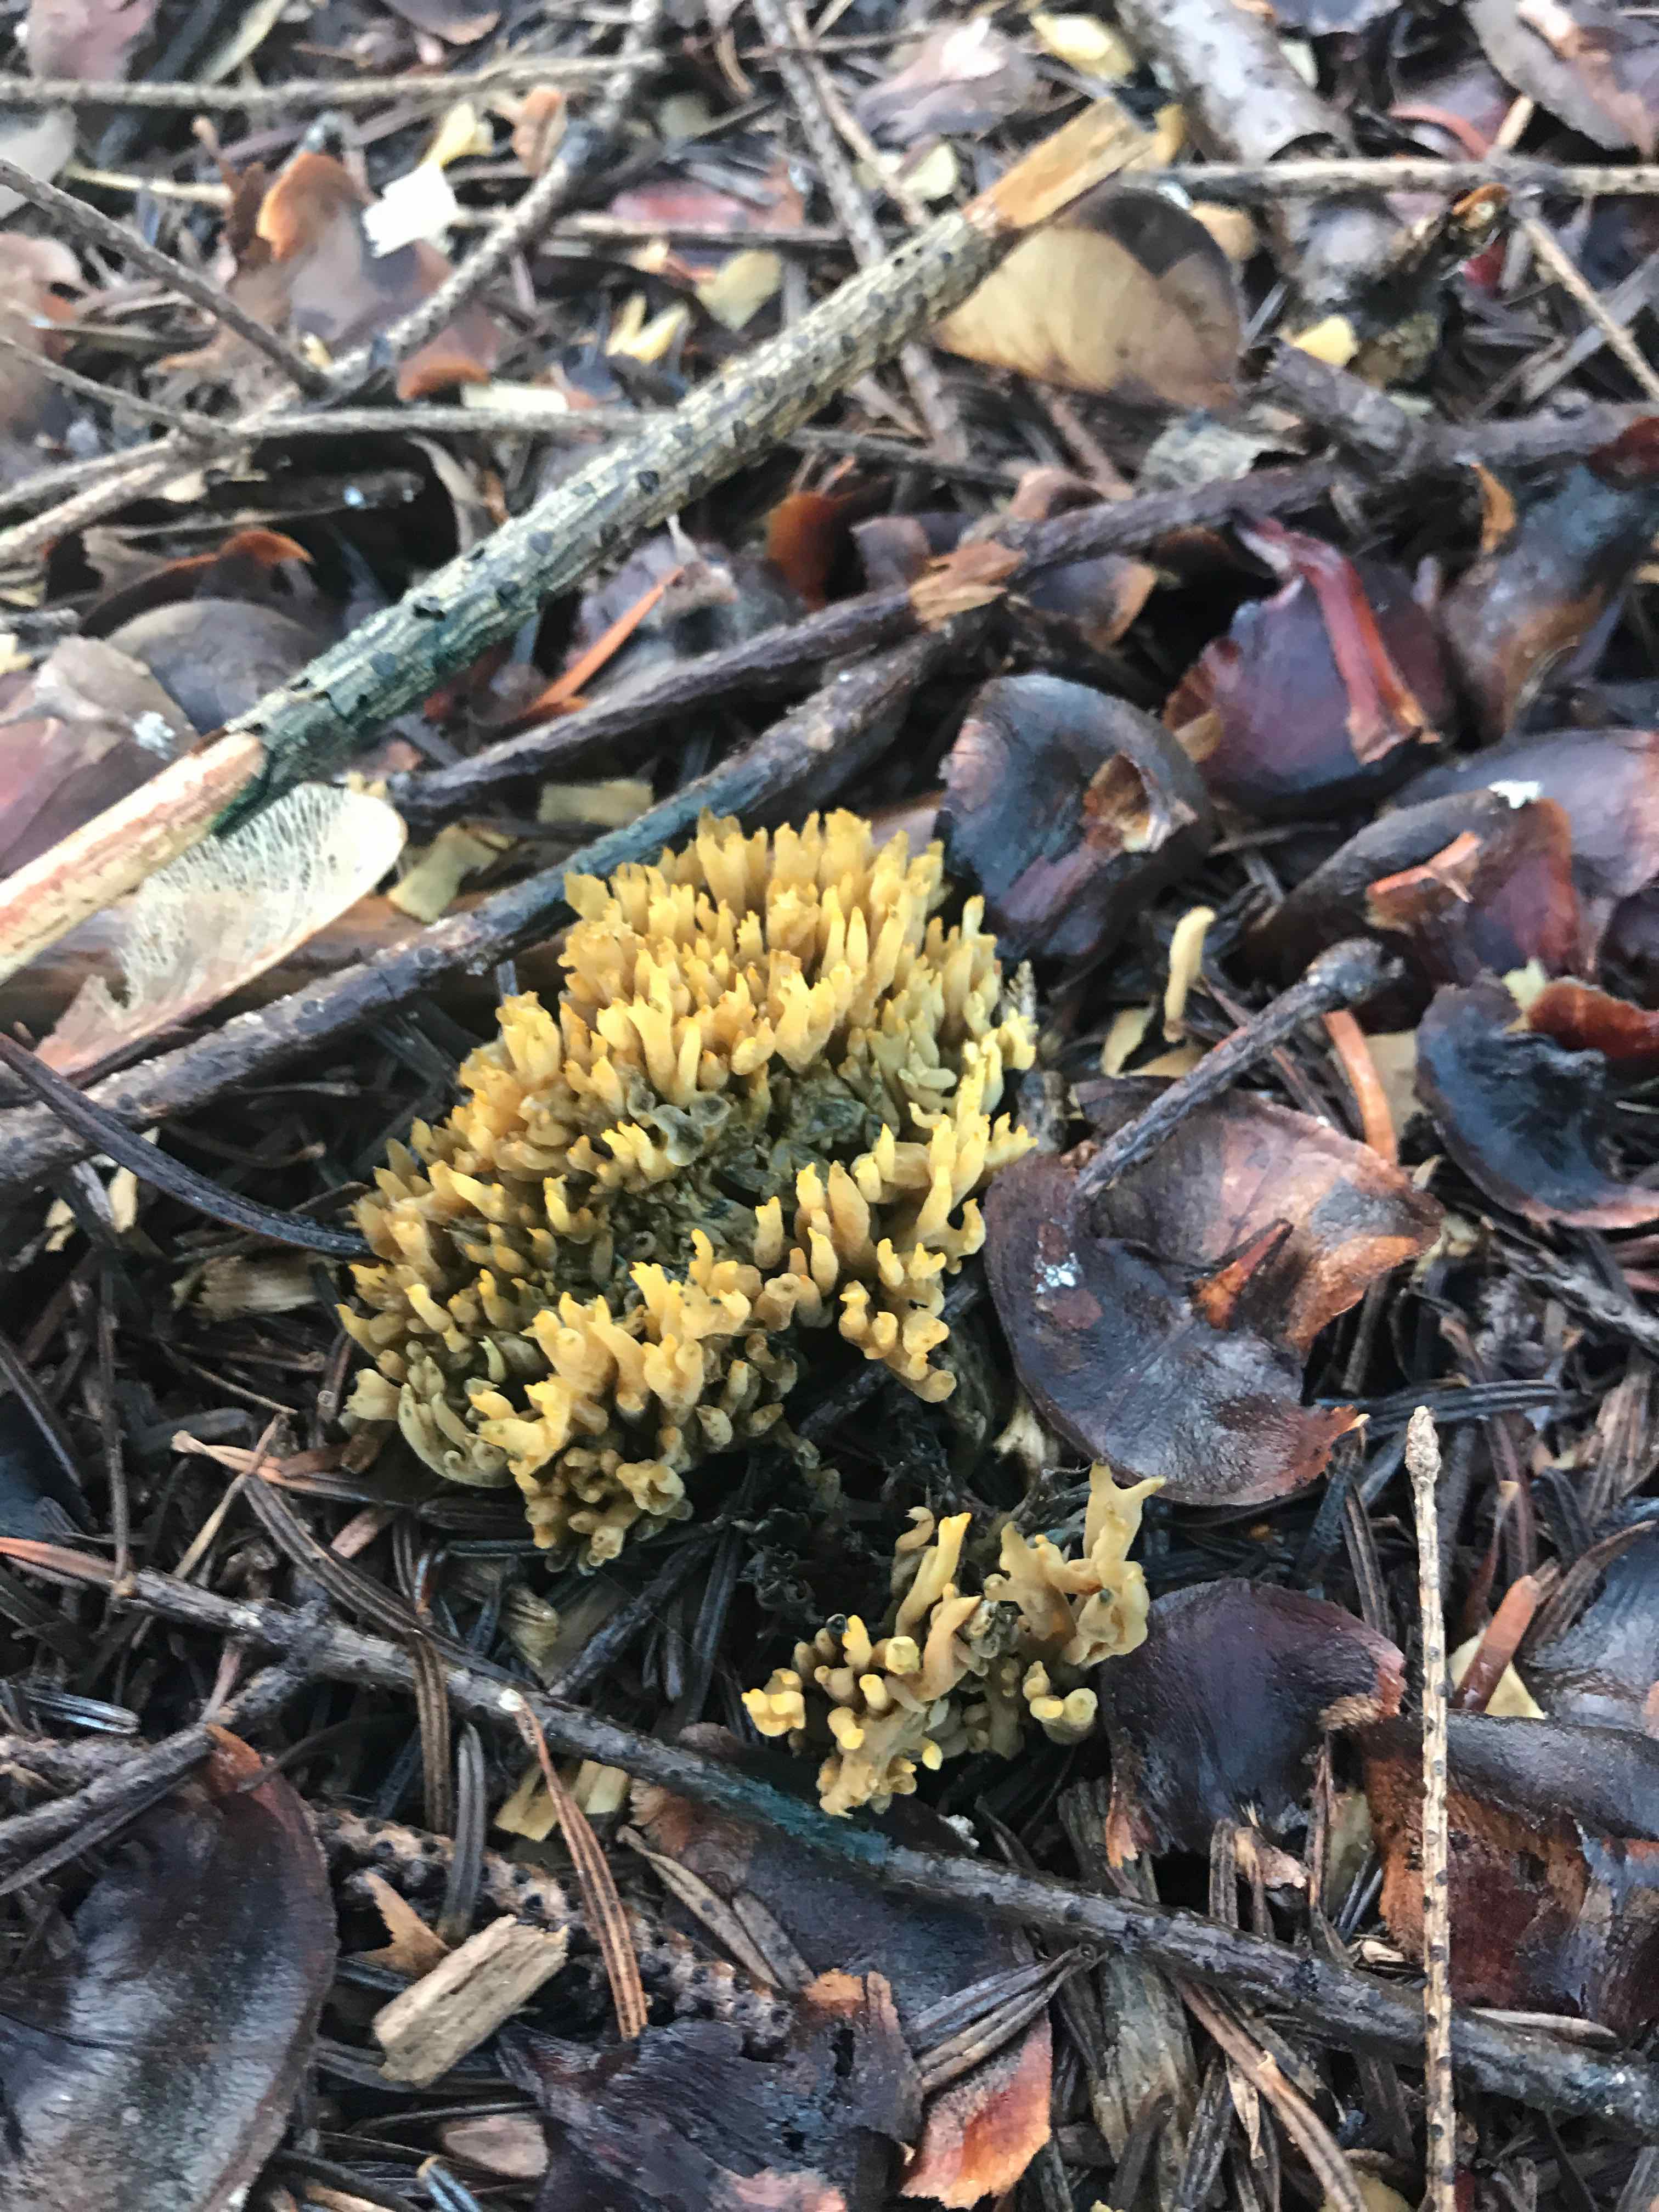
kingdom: Fungi
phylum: Basidiomycota
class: Agaricomycetes
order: Gomphales
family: Gomphaceae
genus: Phaeoclavulina
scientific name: Phaeoclavulina eumorpha
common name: gran-koralsvamp
